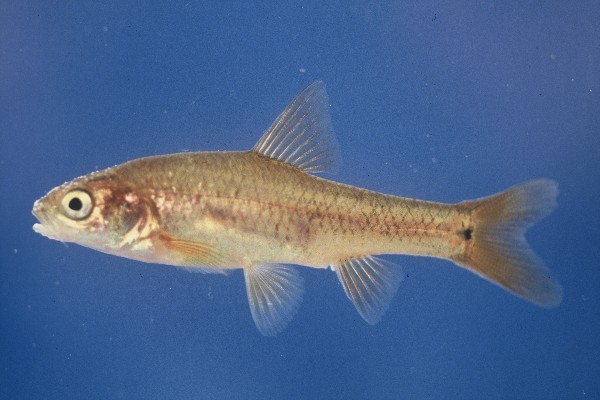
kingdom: Animalia
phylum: Chordata
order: Cypriniformes
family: Cyprinidae
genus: Enteromius
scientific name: Enteromius gurneyi
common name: Redtail barb
